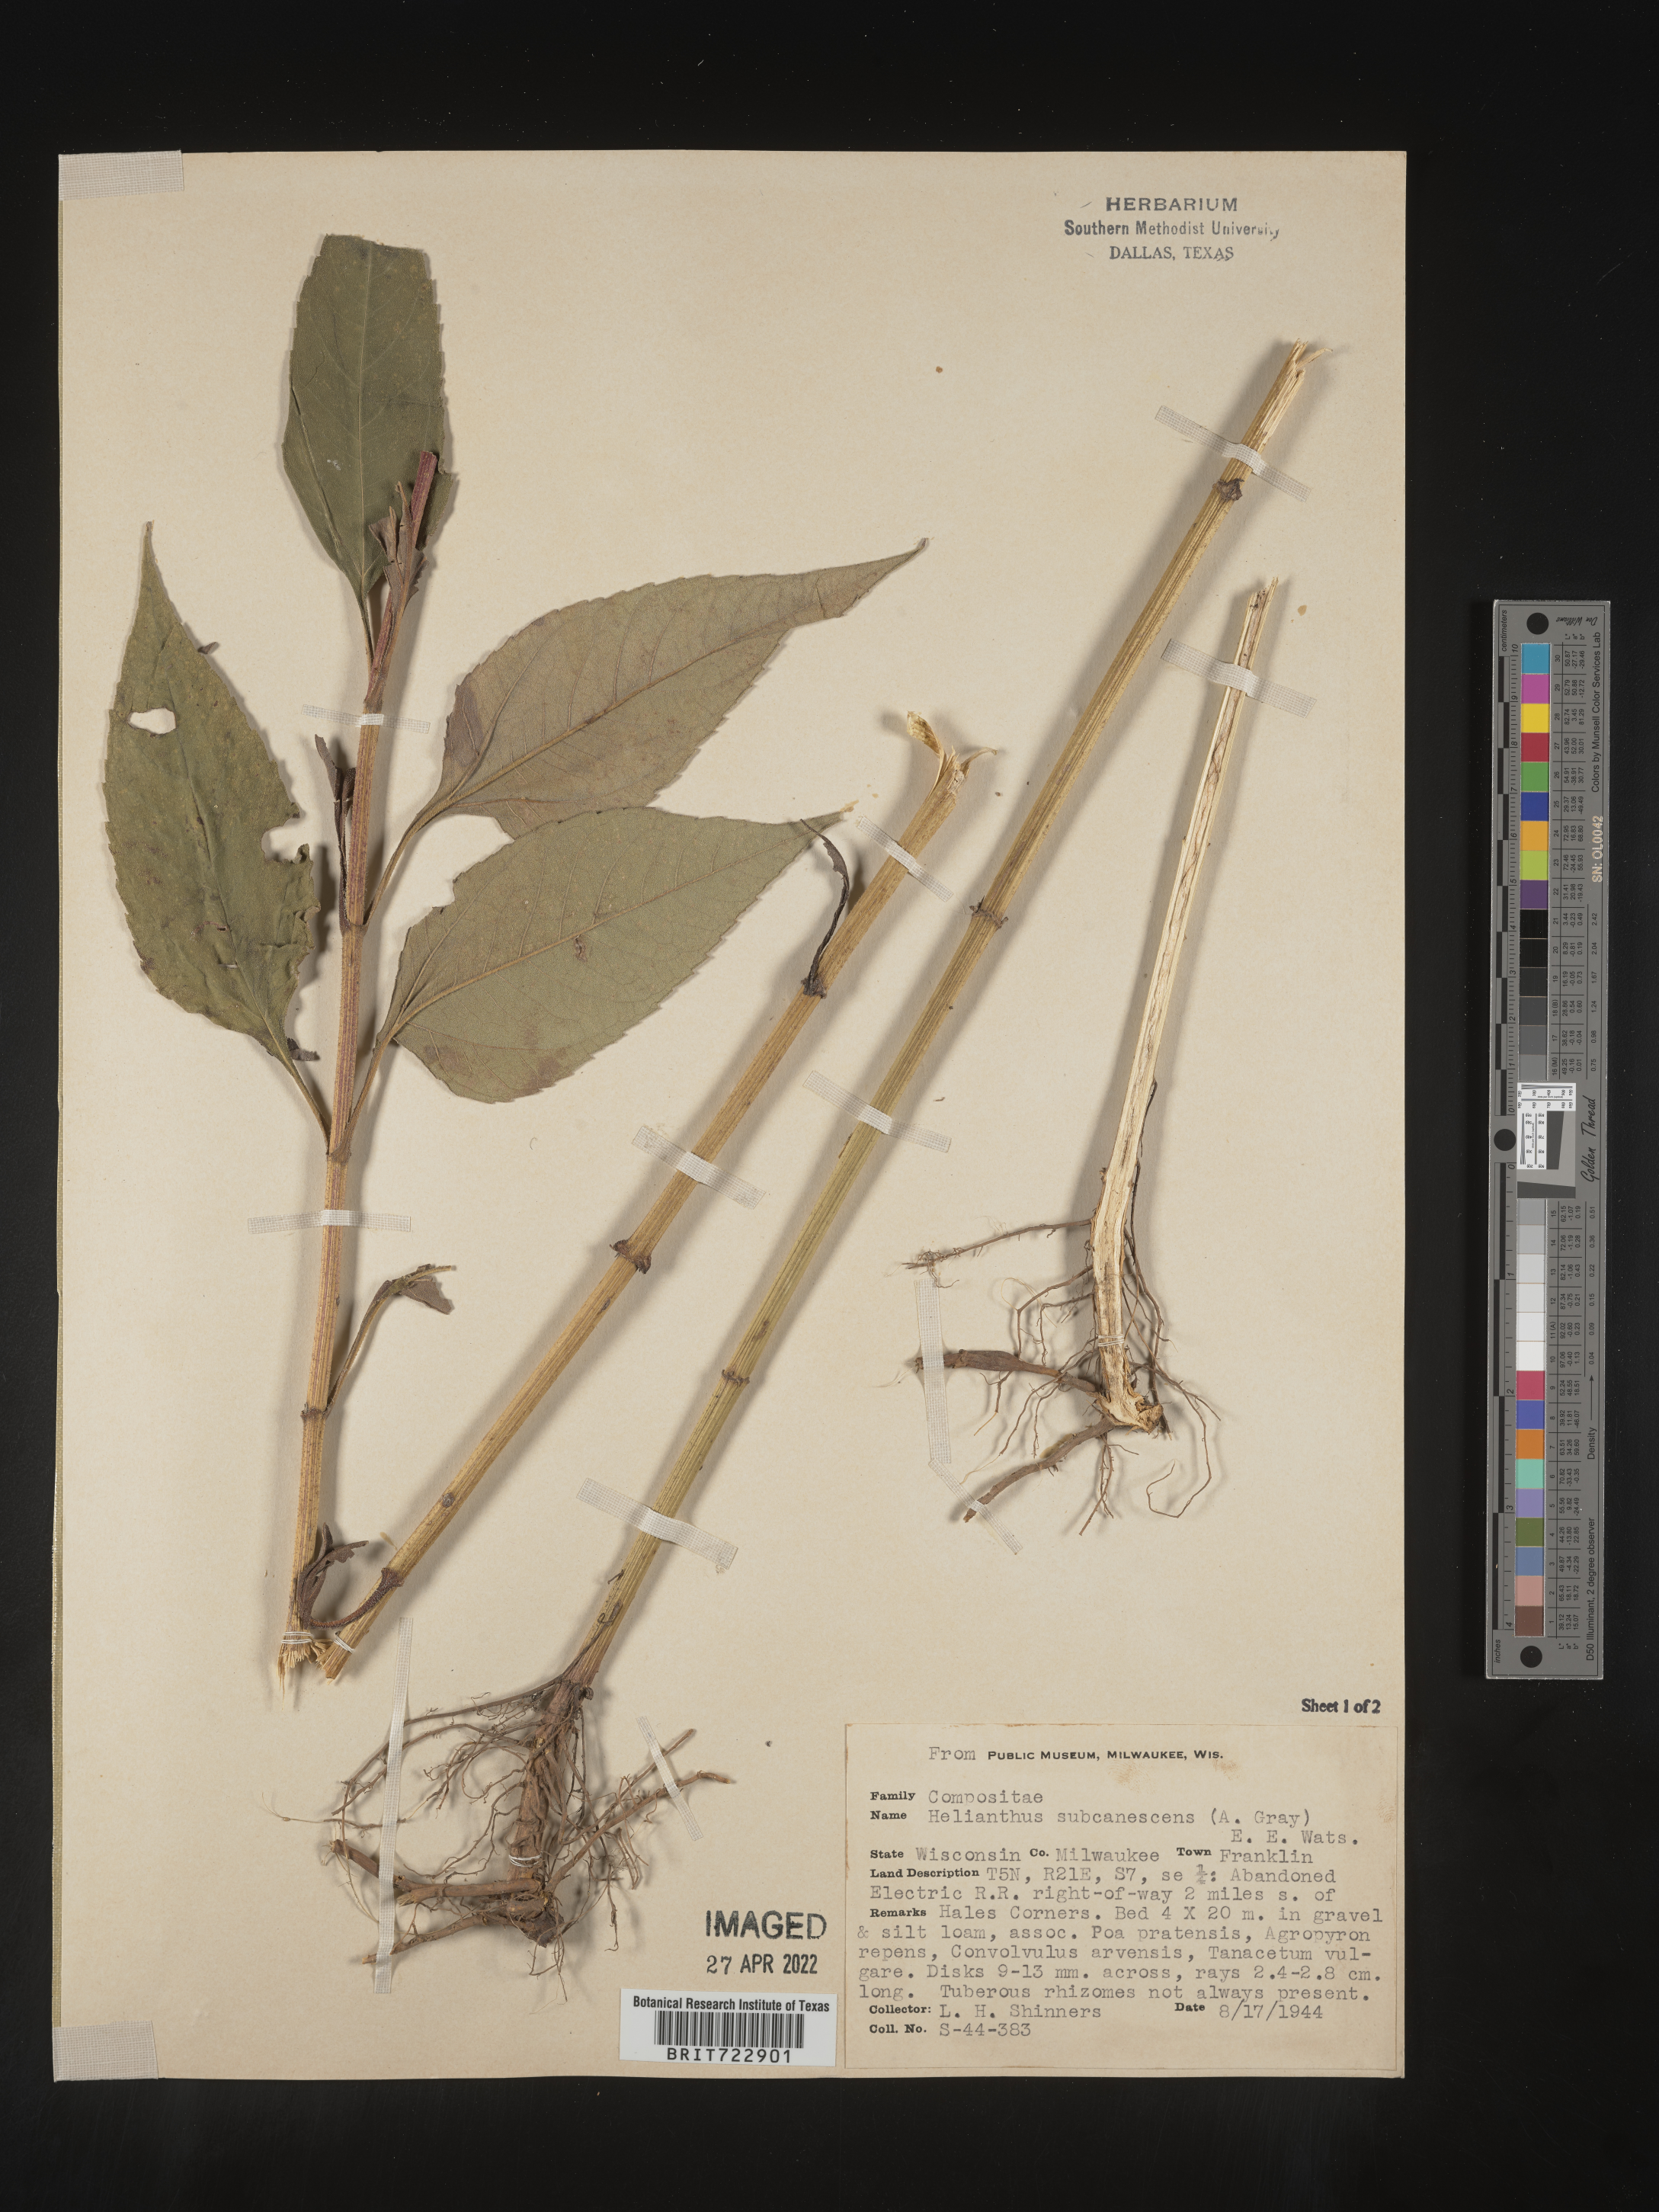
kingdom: Plantae
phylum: Tracheophyta
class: Magnoliopsida
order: Asterales
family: Asteraceae
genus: Helianthus
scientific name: Helianthus
